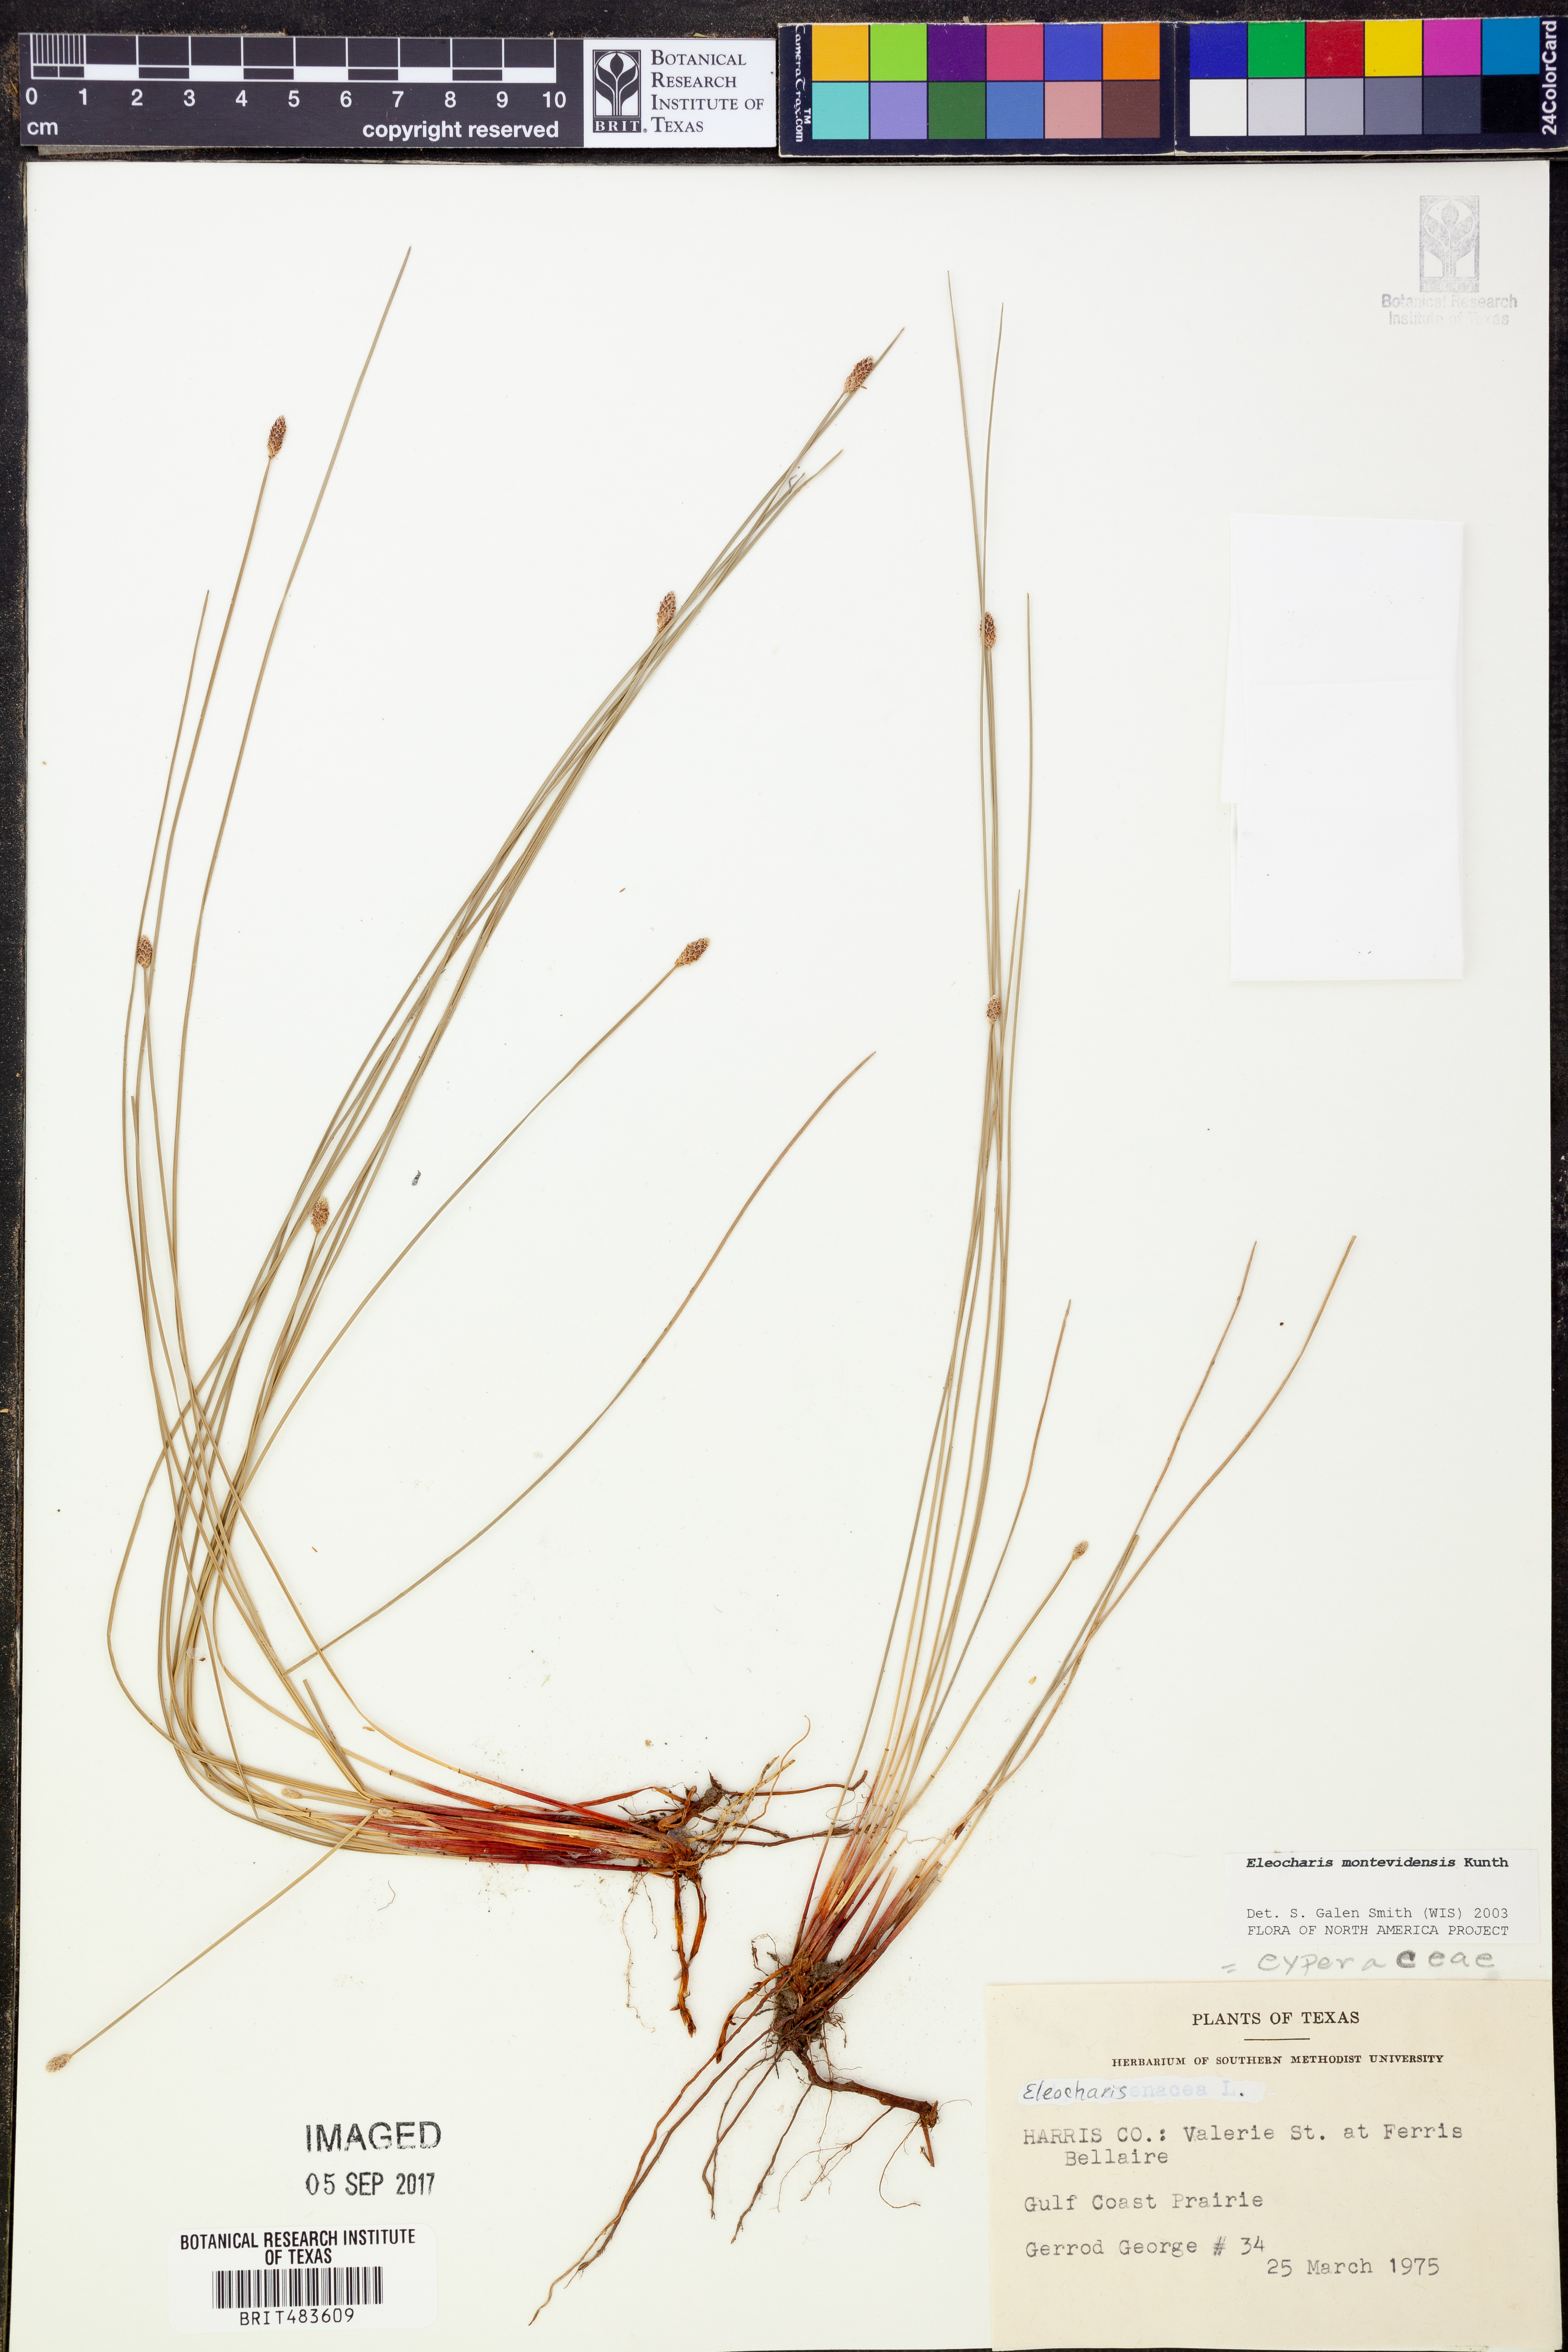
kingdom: Plantae
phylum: Tracheophyta
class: Liliopsida
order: Poales
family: Cyperaceae
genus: Eleocharis
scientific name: Eleocharis montevidensis
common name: Sand spike-rush
